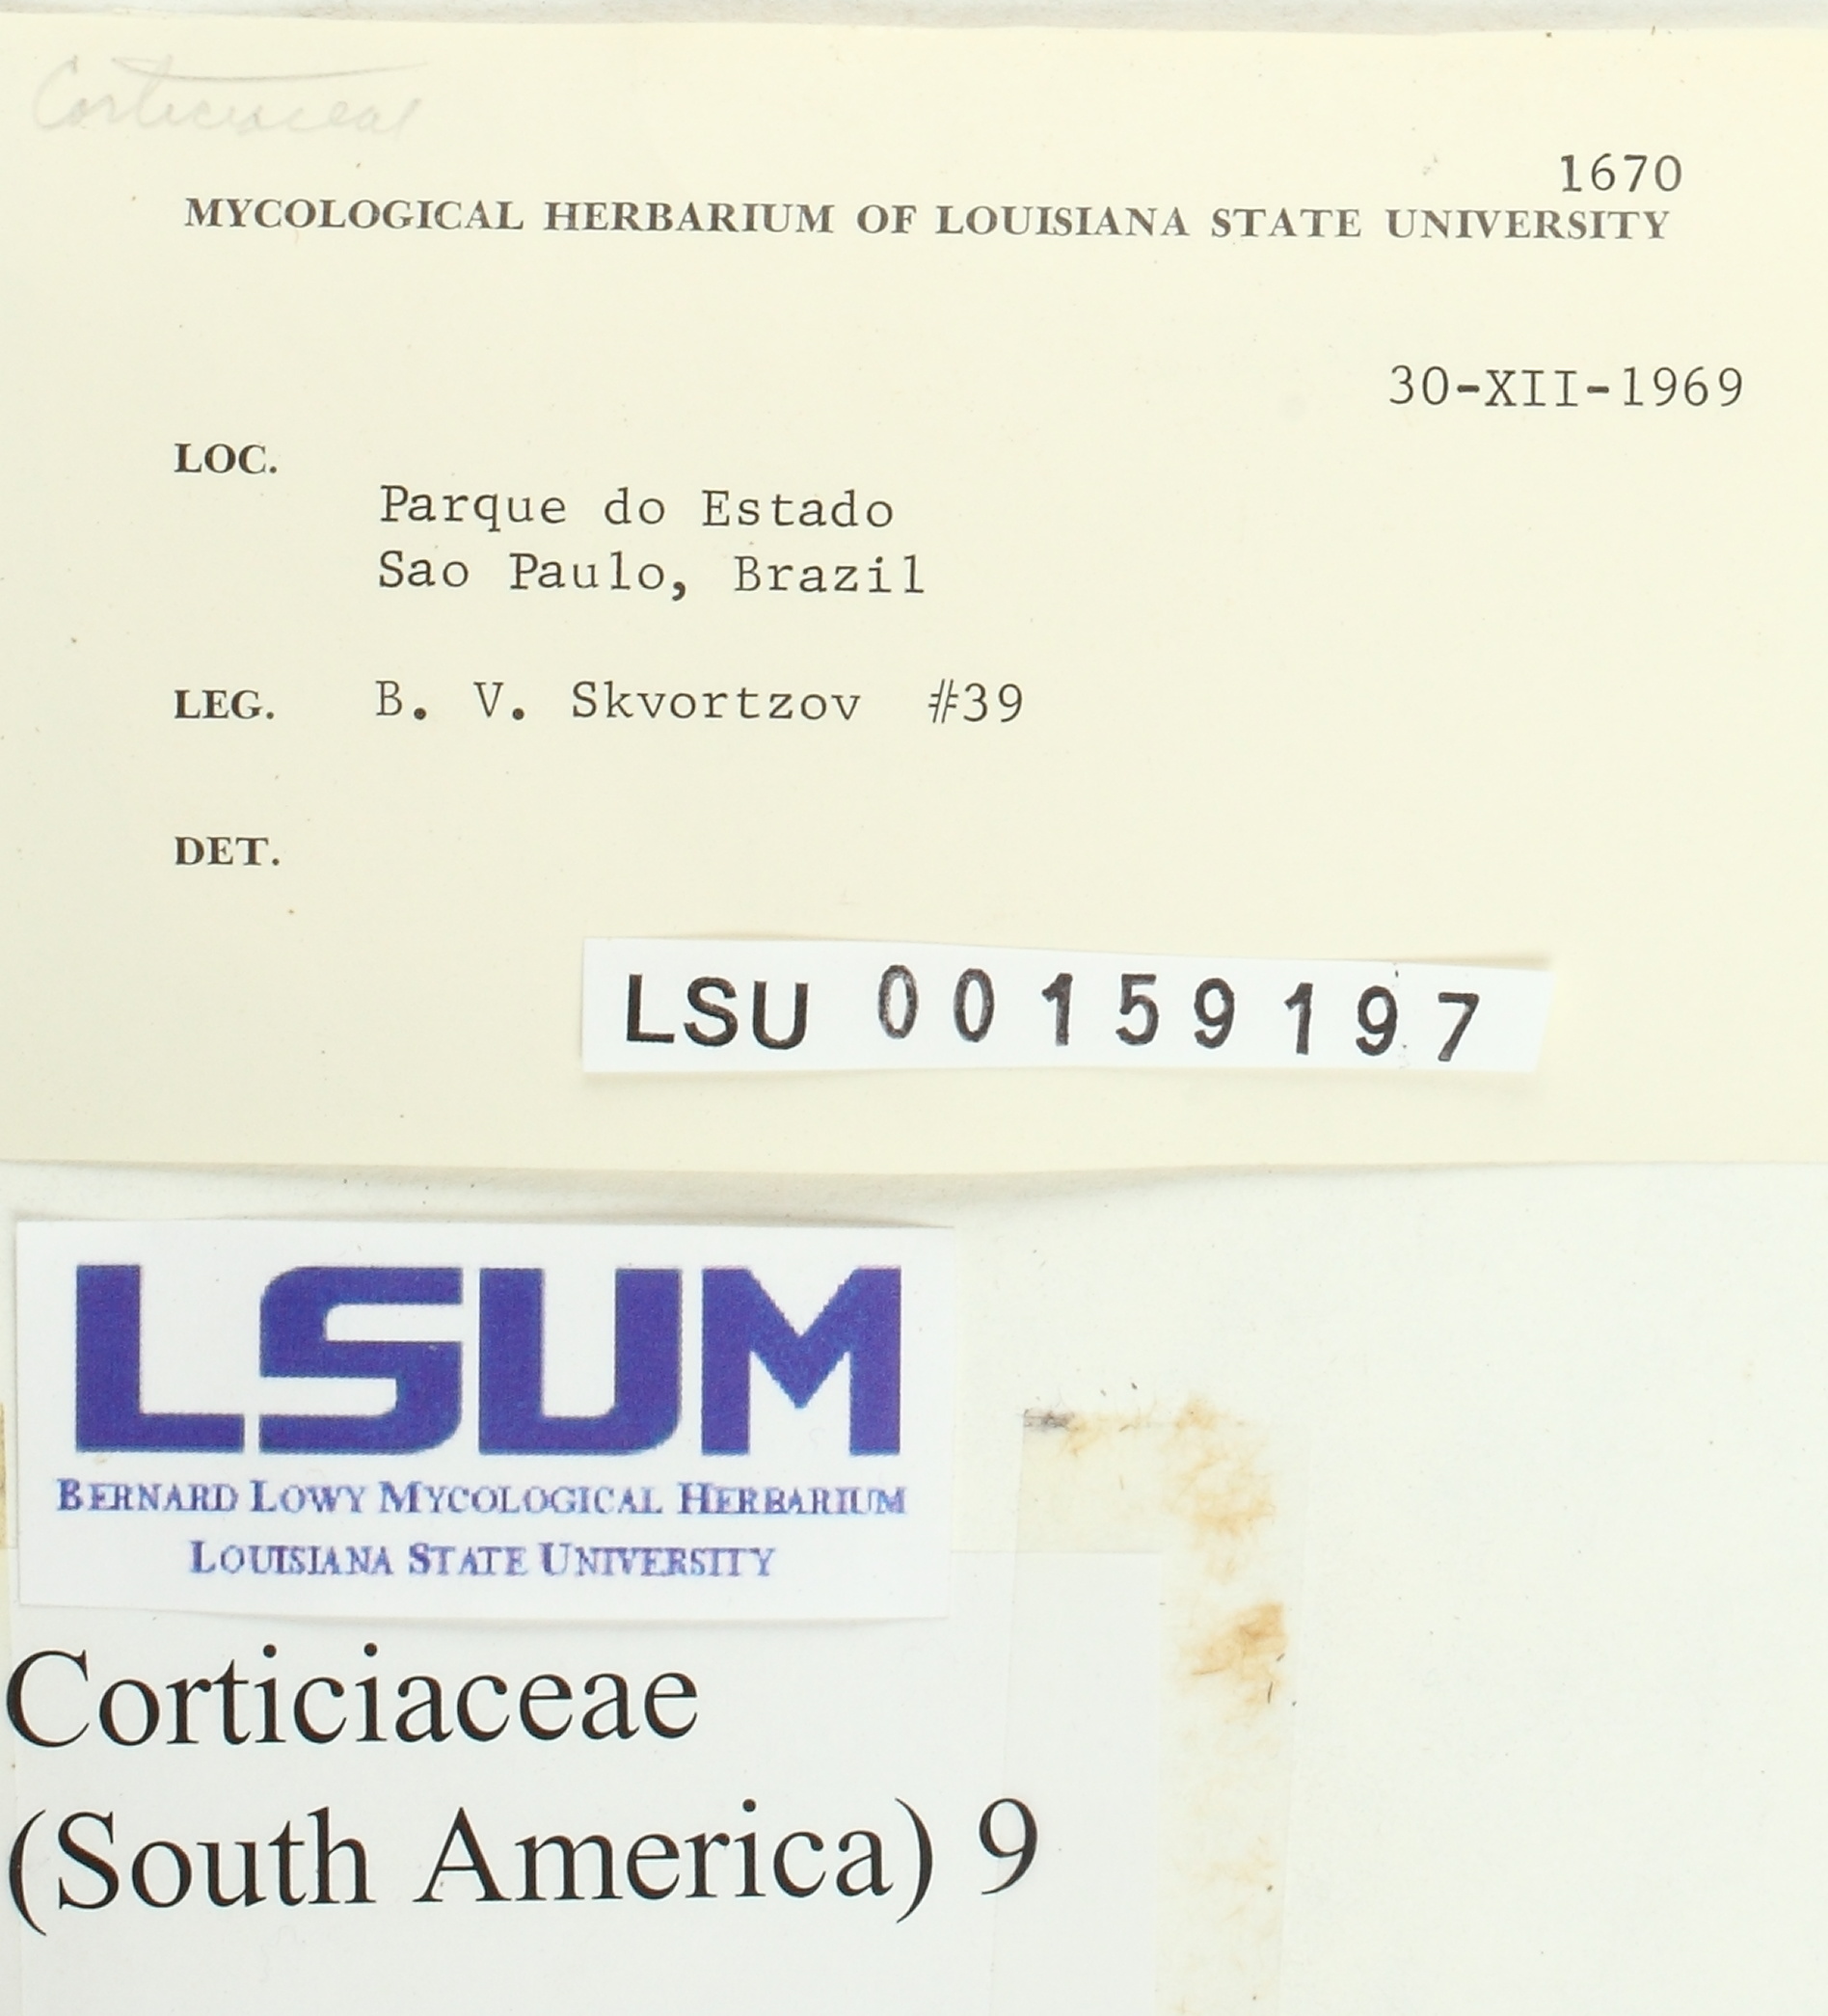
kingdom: Fungi
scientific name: Fungi
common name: Fungi
